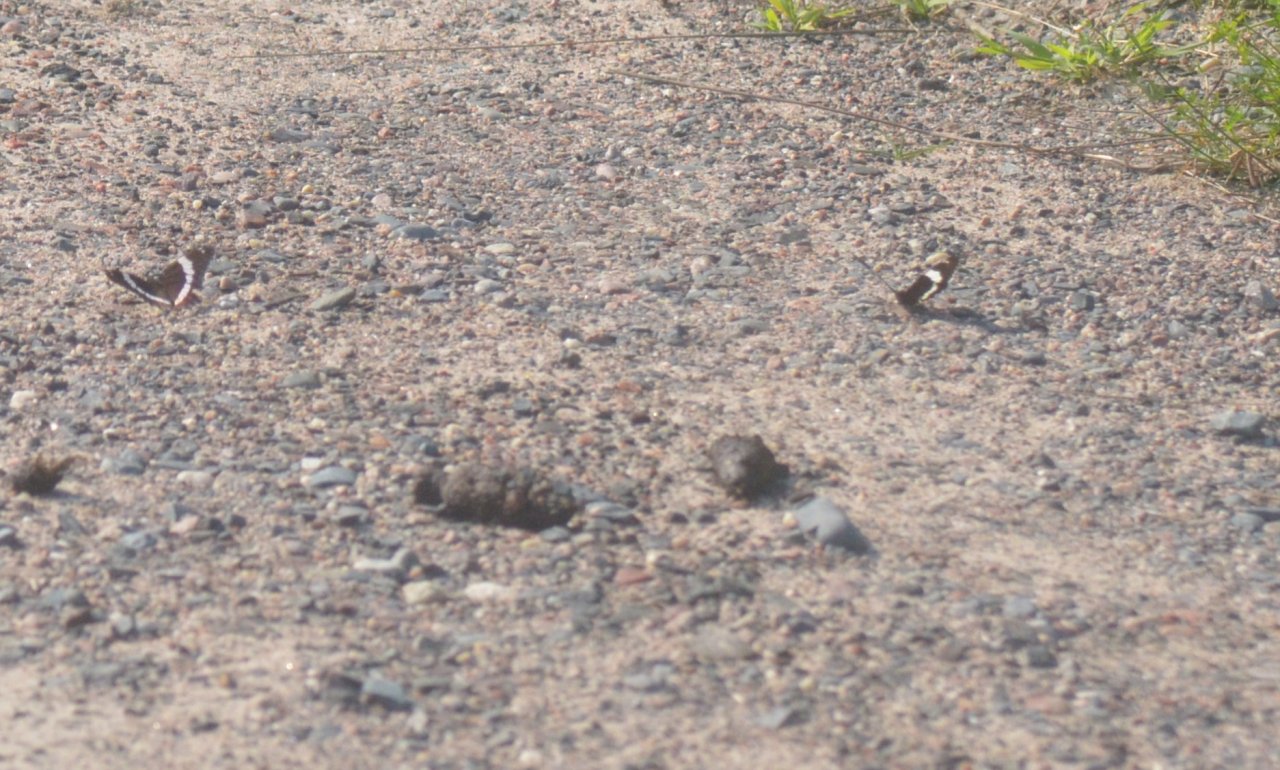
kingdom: Animalia
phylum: Arthropoda
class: Insecta
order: Lepidoptera
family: Nymphalidae
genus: Limenitis
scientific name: Limenitis arthemis
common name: Red-spotted Admiral
